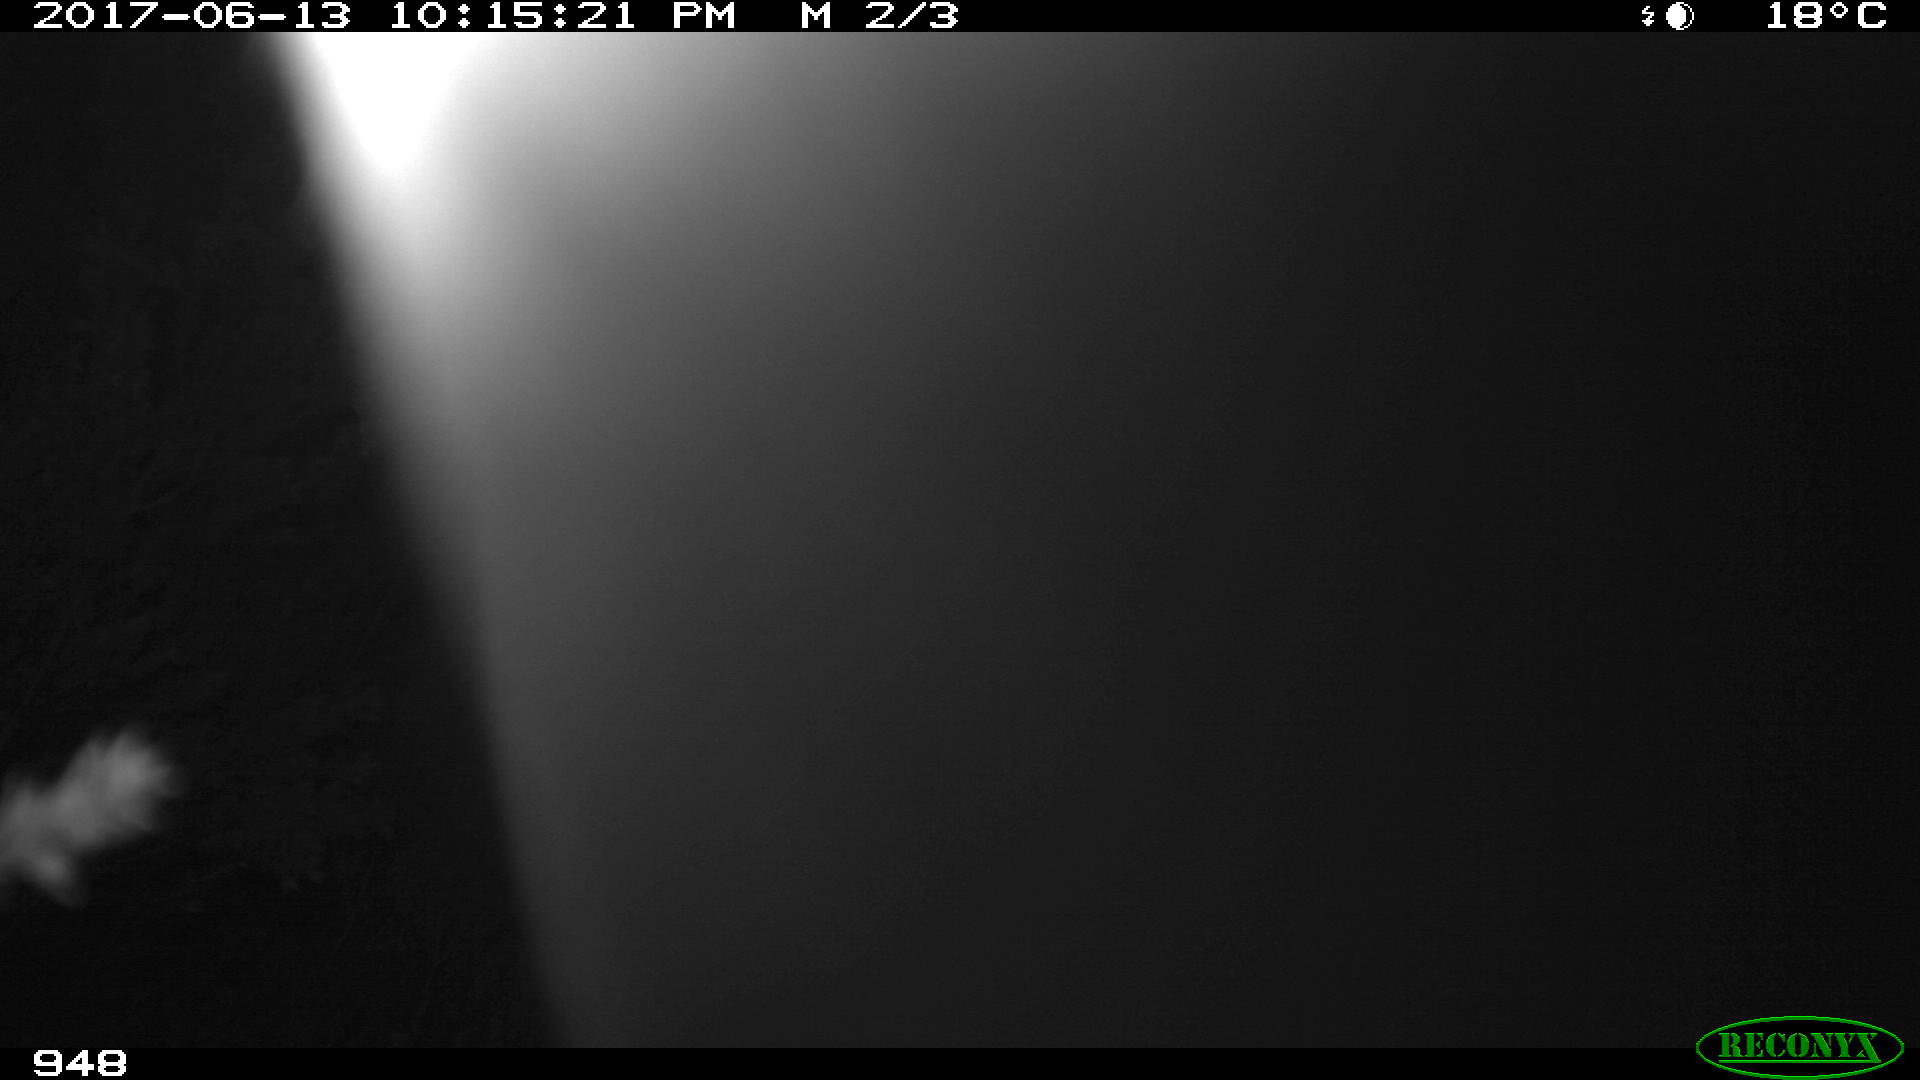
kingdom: Animalia
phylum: Chordata
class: Mammalia
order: Perissodactyla
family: Equidae
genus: Equus
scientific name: Equus caballus
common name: Horse
